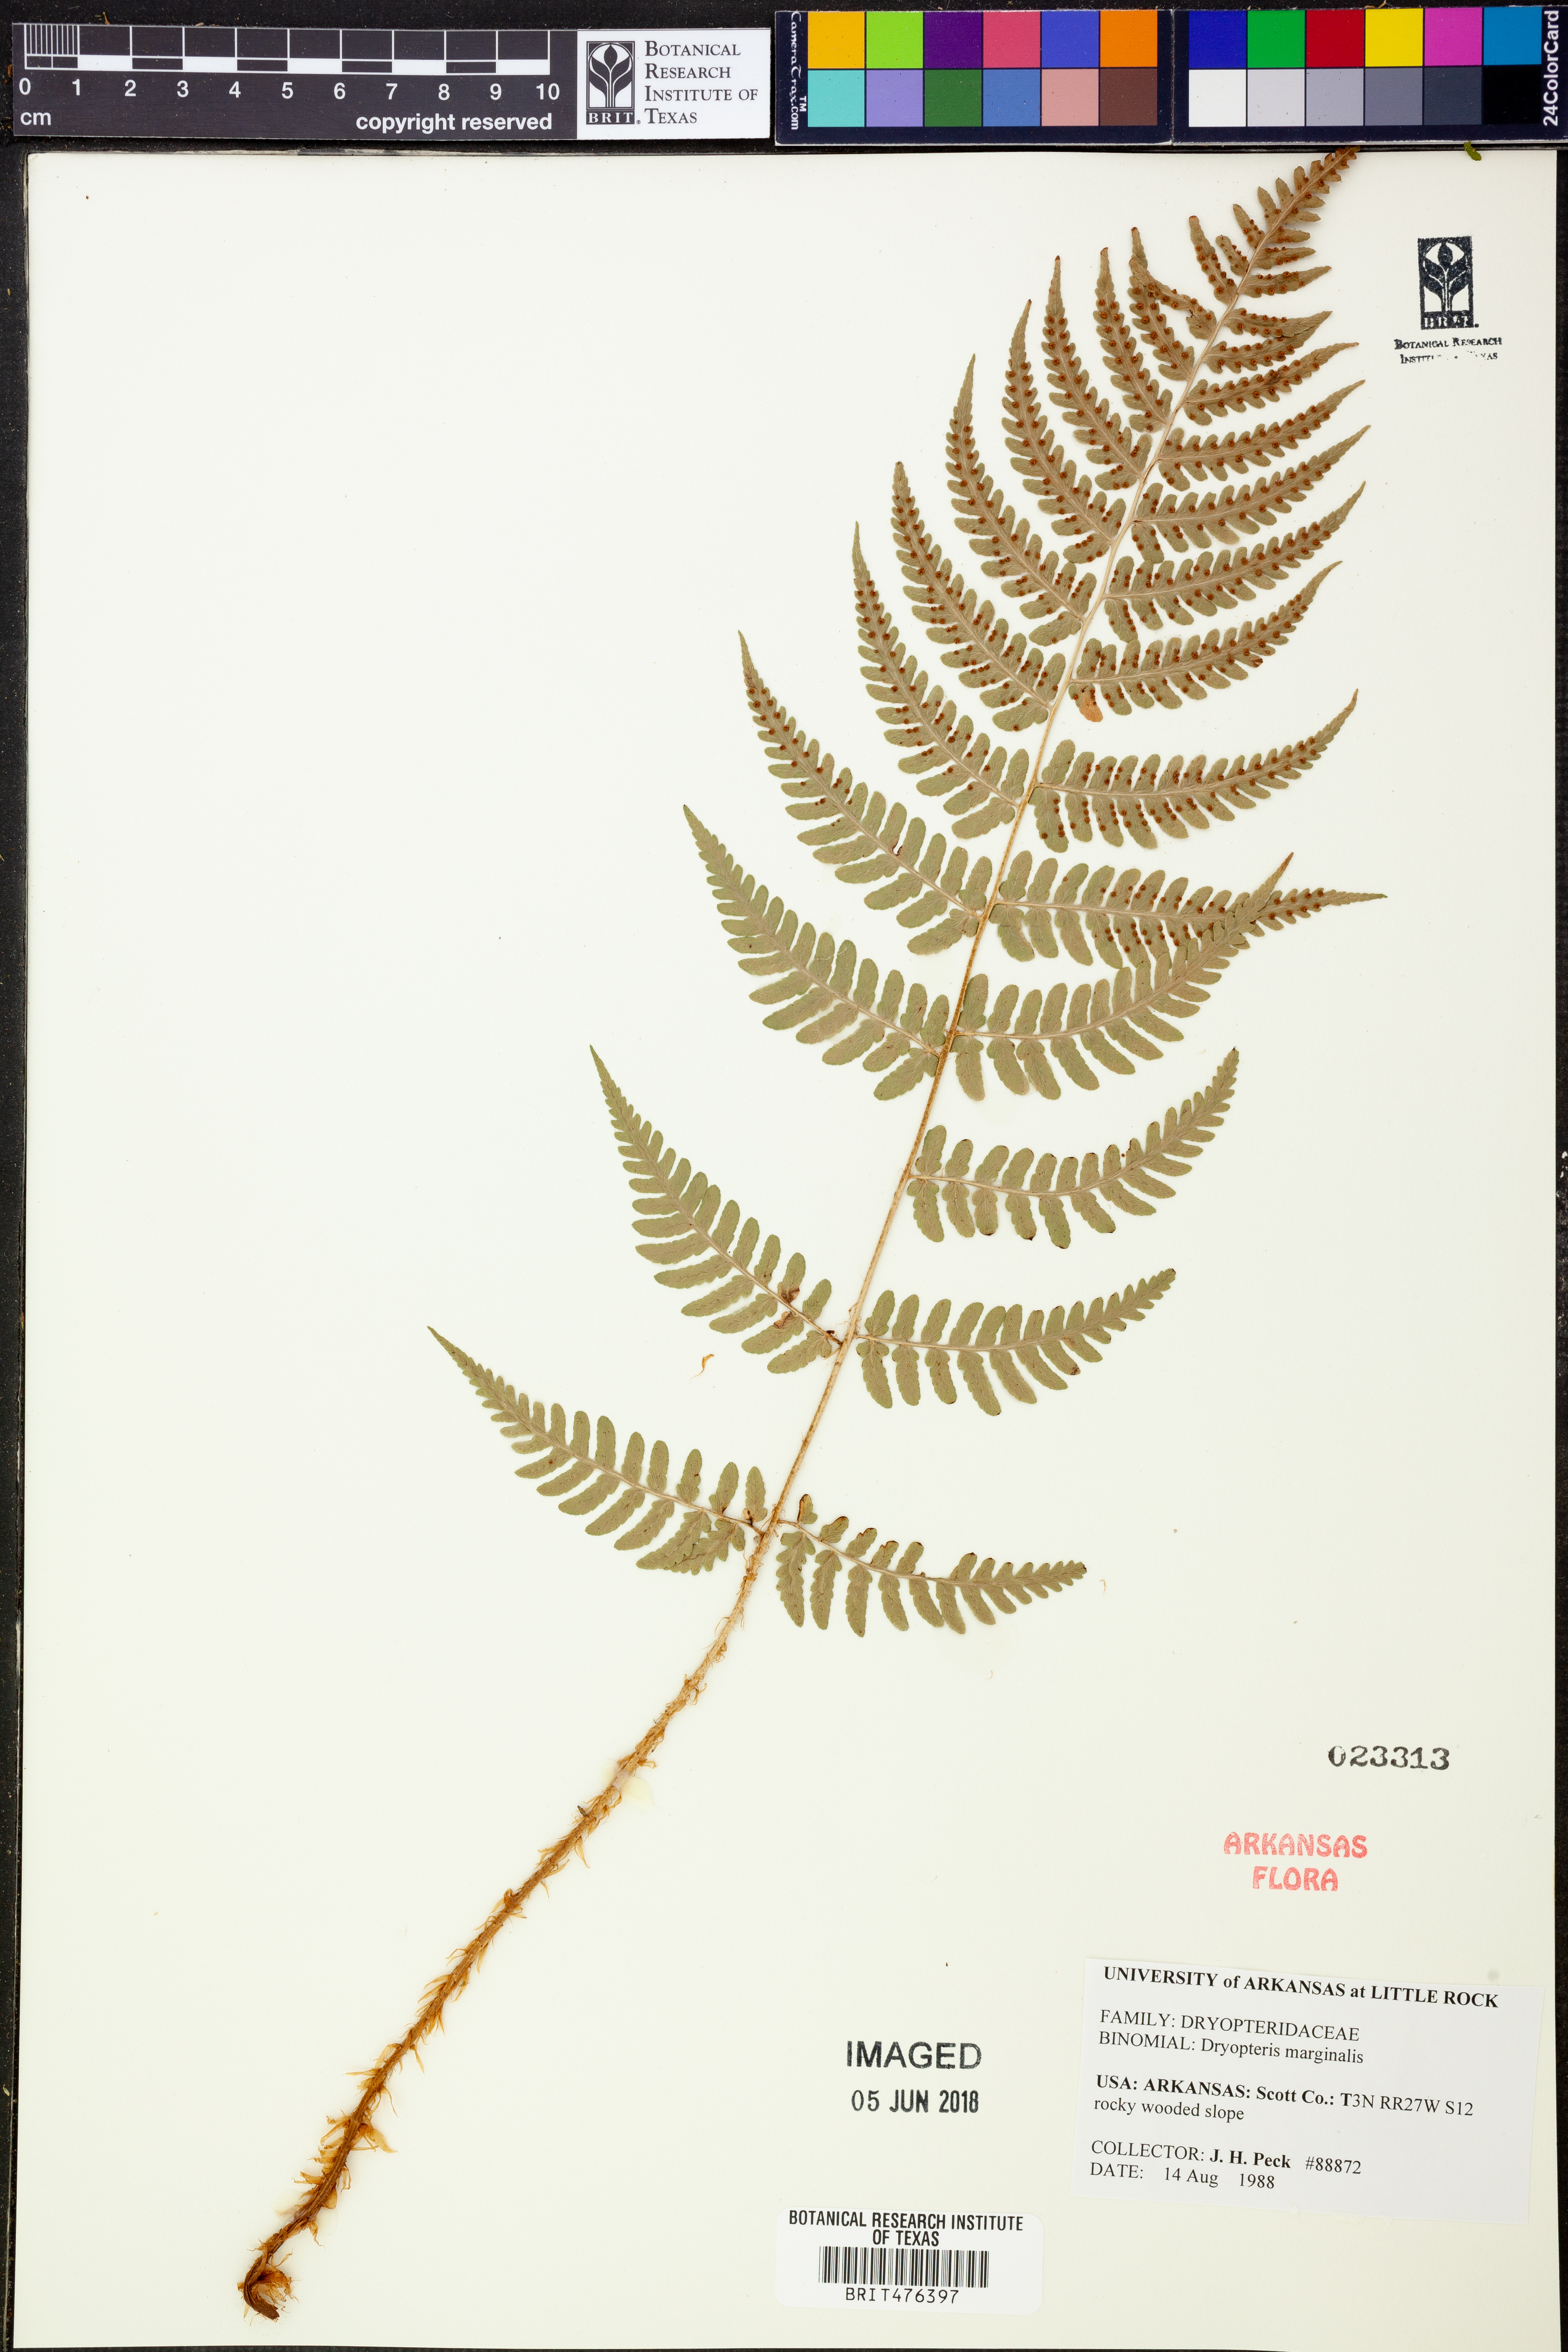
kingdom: Plantae
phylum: Tracheophyta
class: Polypodiopsida
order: Polypodiales
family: Dryopteridaceae
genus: Dryopteris
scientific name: Dryopteris marginalis
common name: Marginal wood fern
